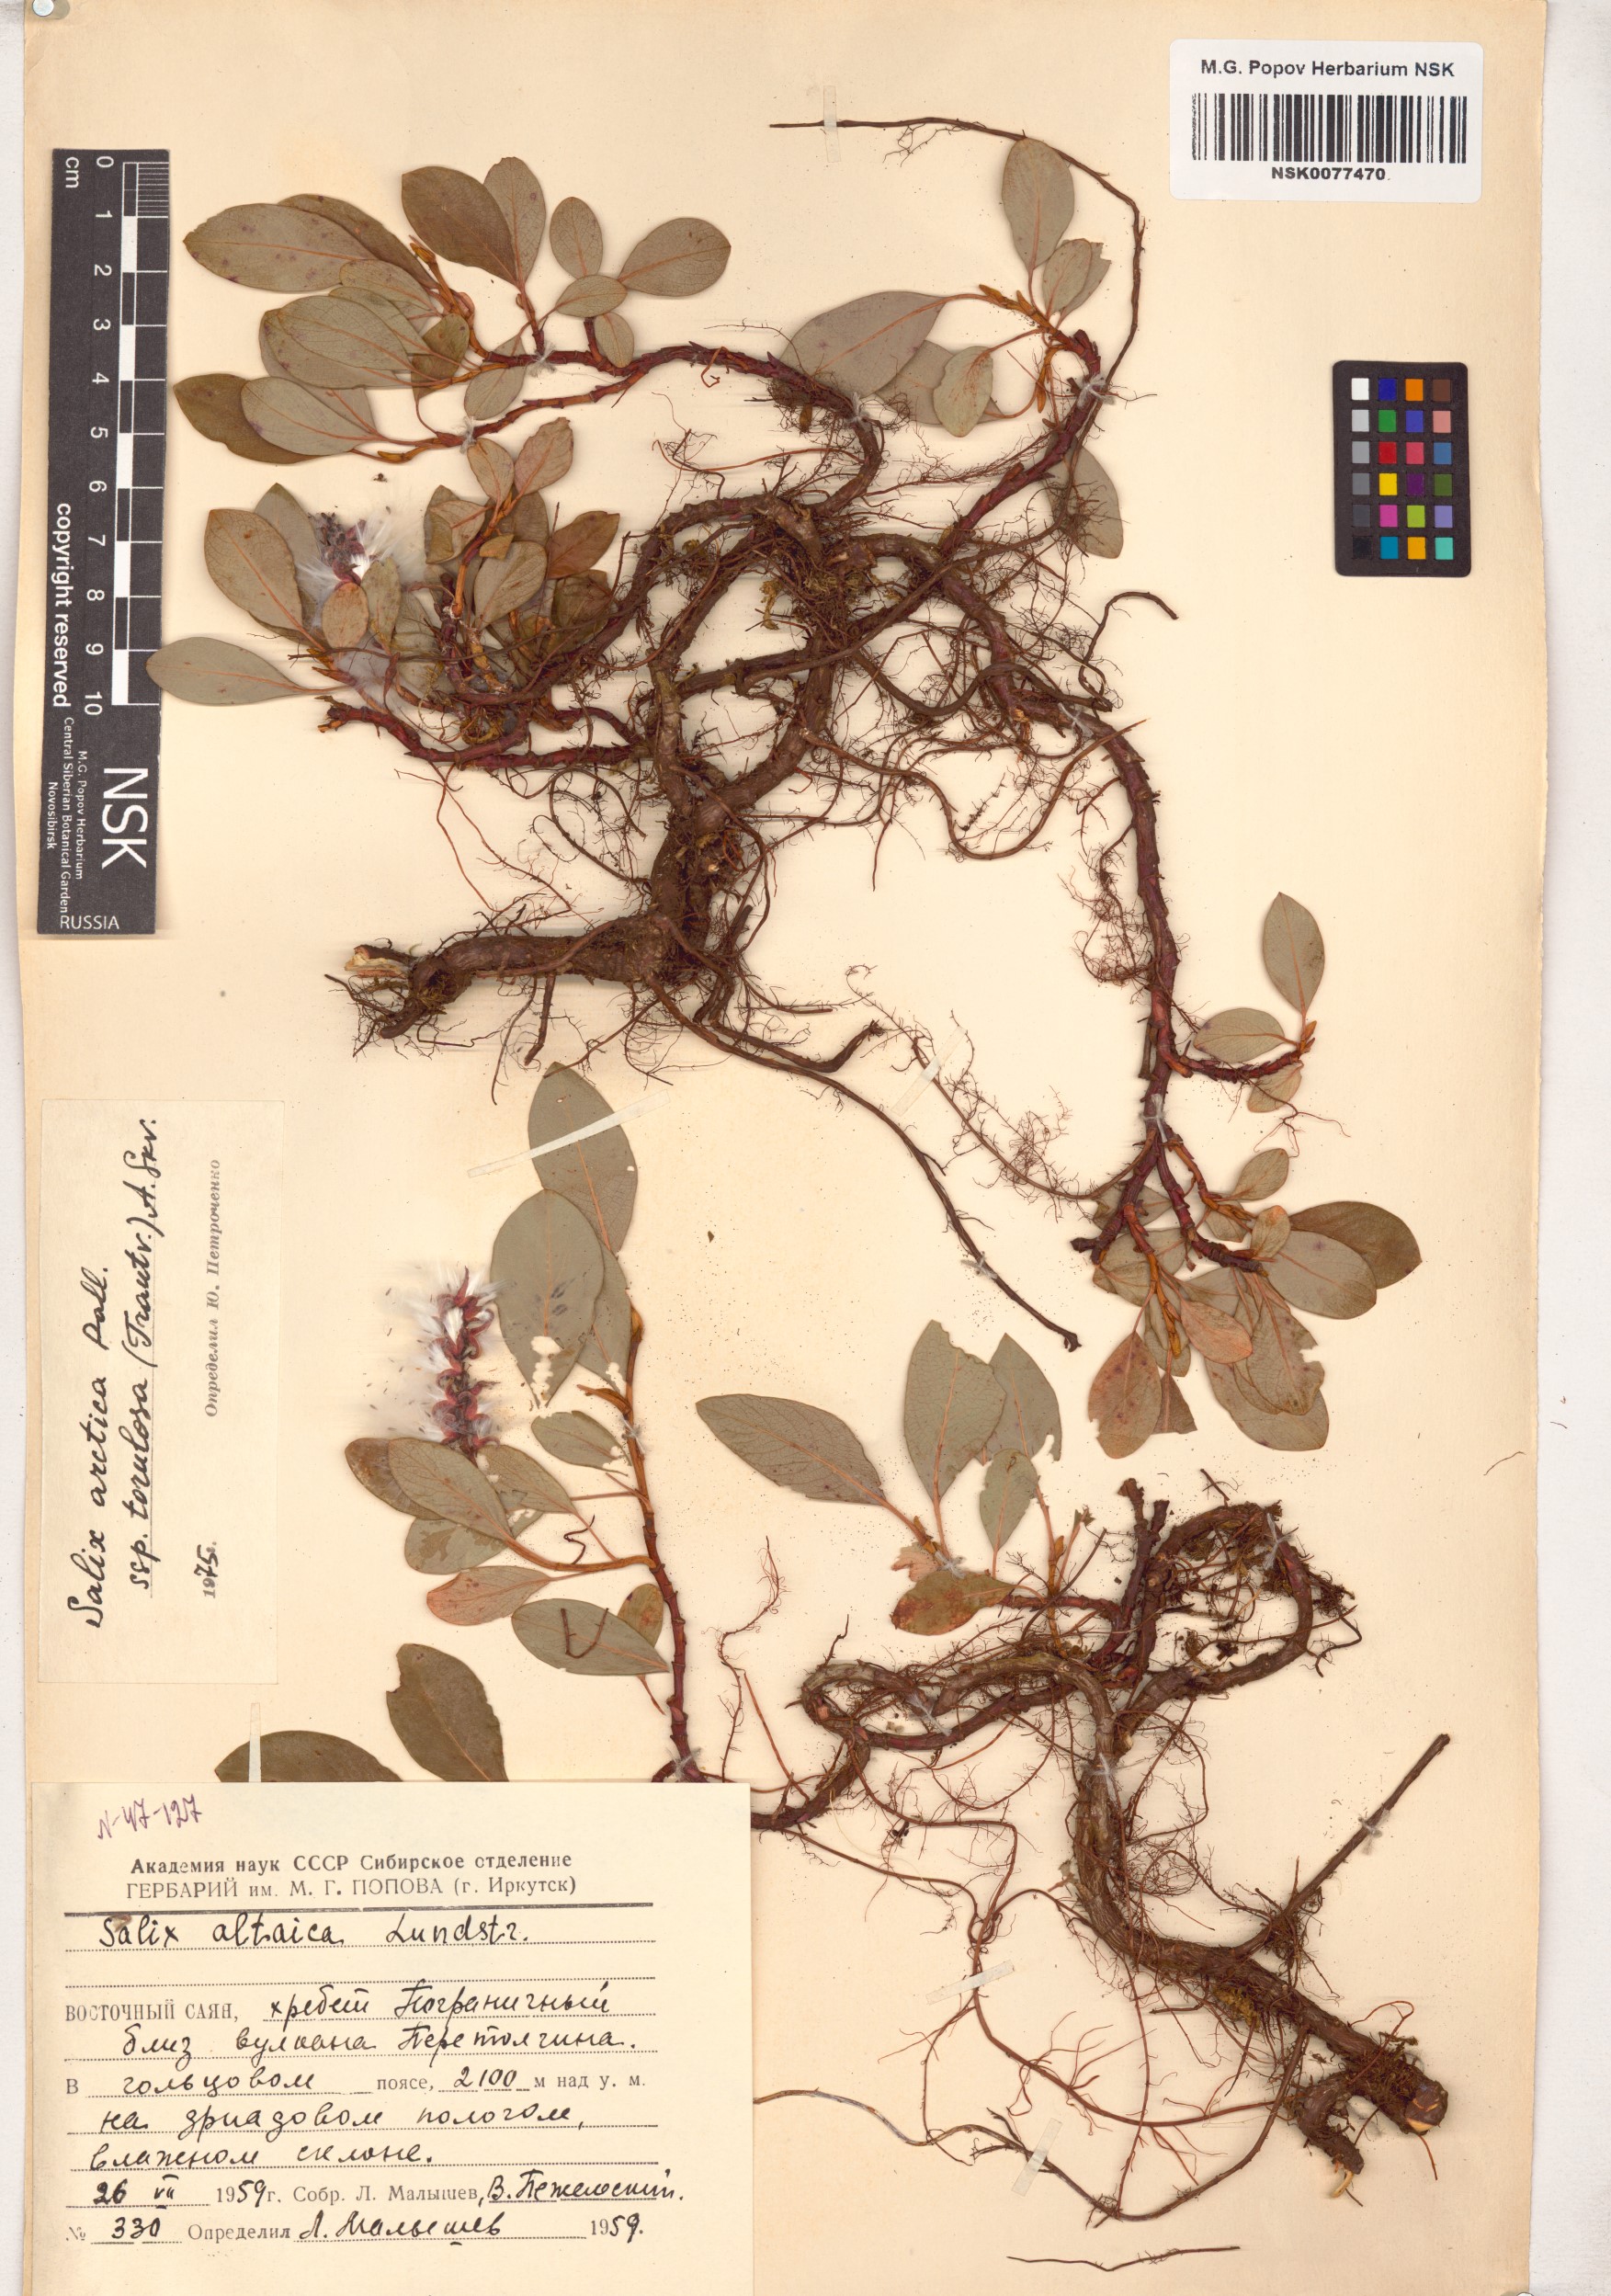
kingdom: Plantae
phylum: Tracheophyta
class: Magnoliopsida
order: Malpighiales
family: Salicaceae
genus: Salix
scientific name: Salix arctica
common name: Arctic willow
